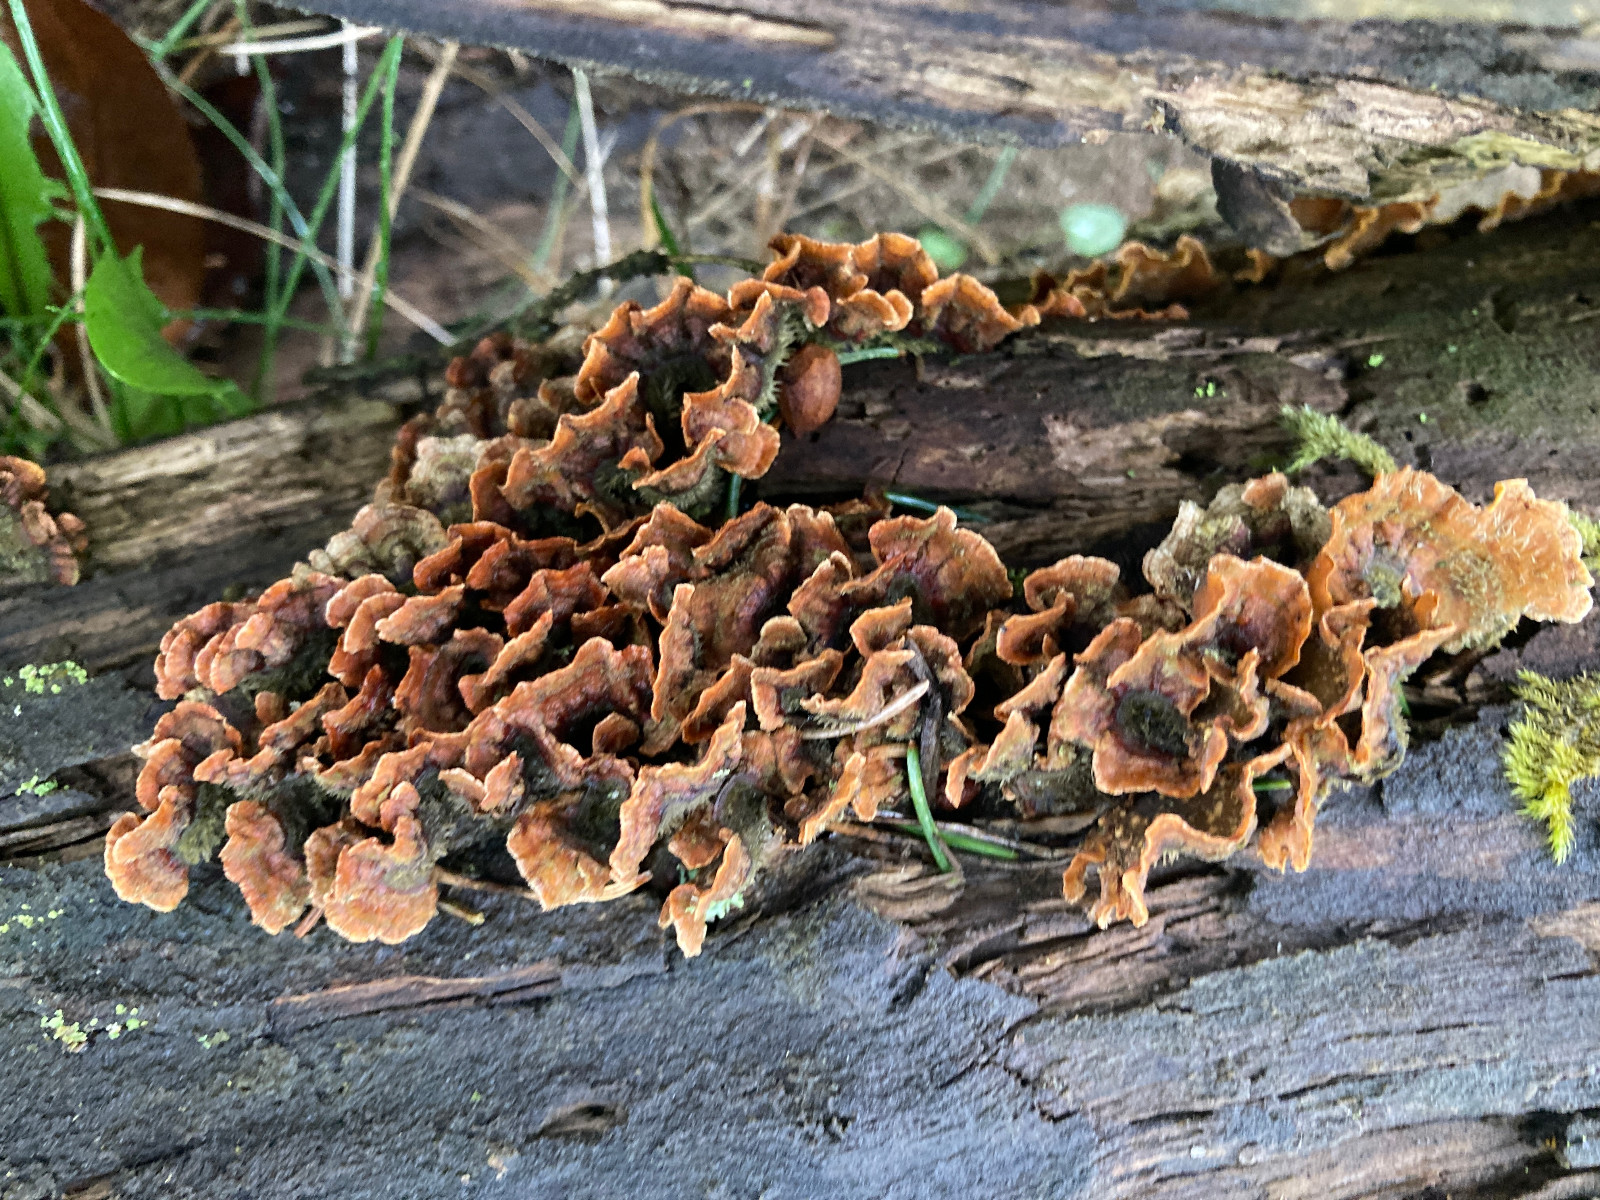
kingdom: Fungi
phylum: Basidiomycota
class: Agaricomycetes
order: Russulales
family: Stereaceae
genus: Stereum
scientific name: Stereum hirsutum
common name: håret lædersvamp
